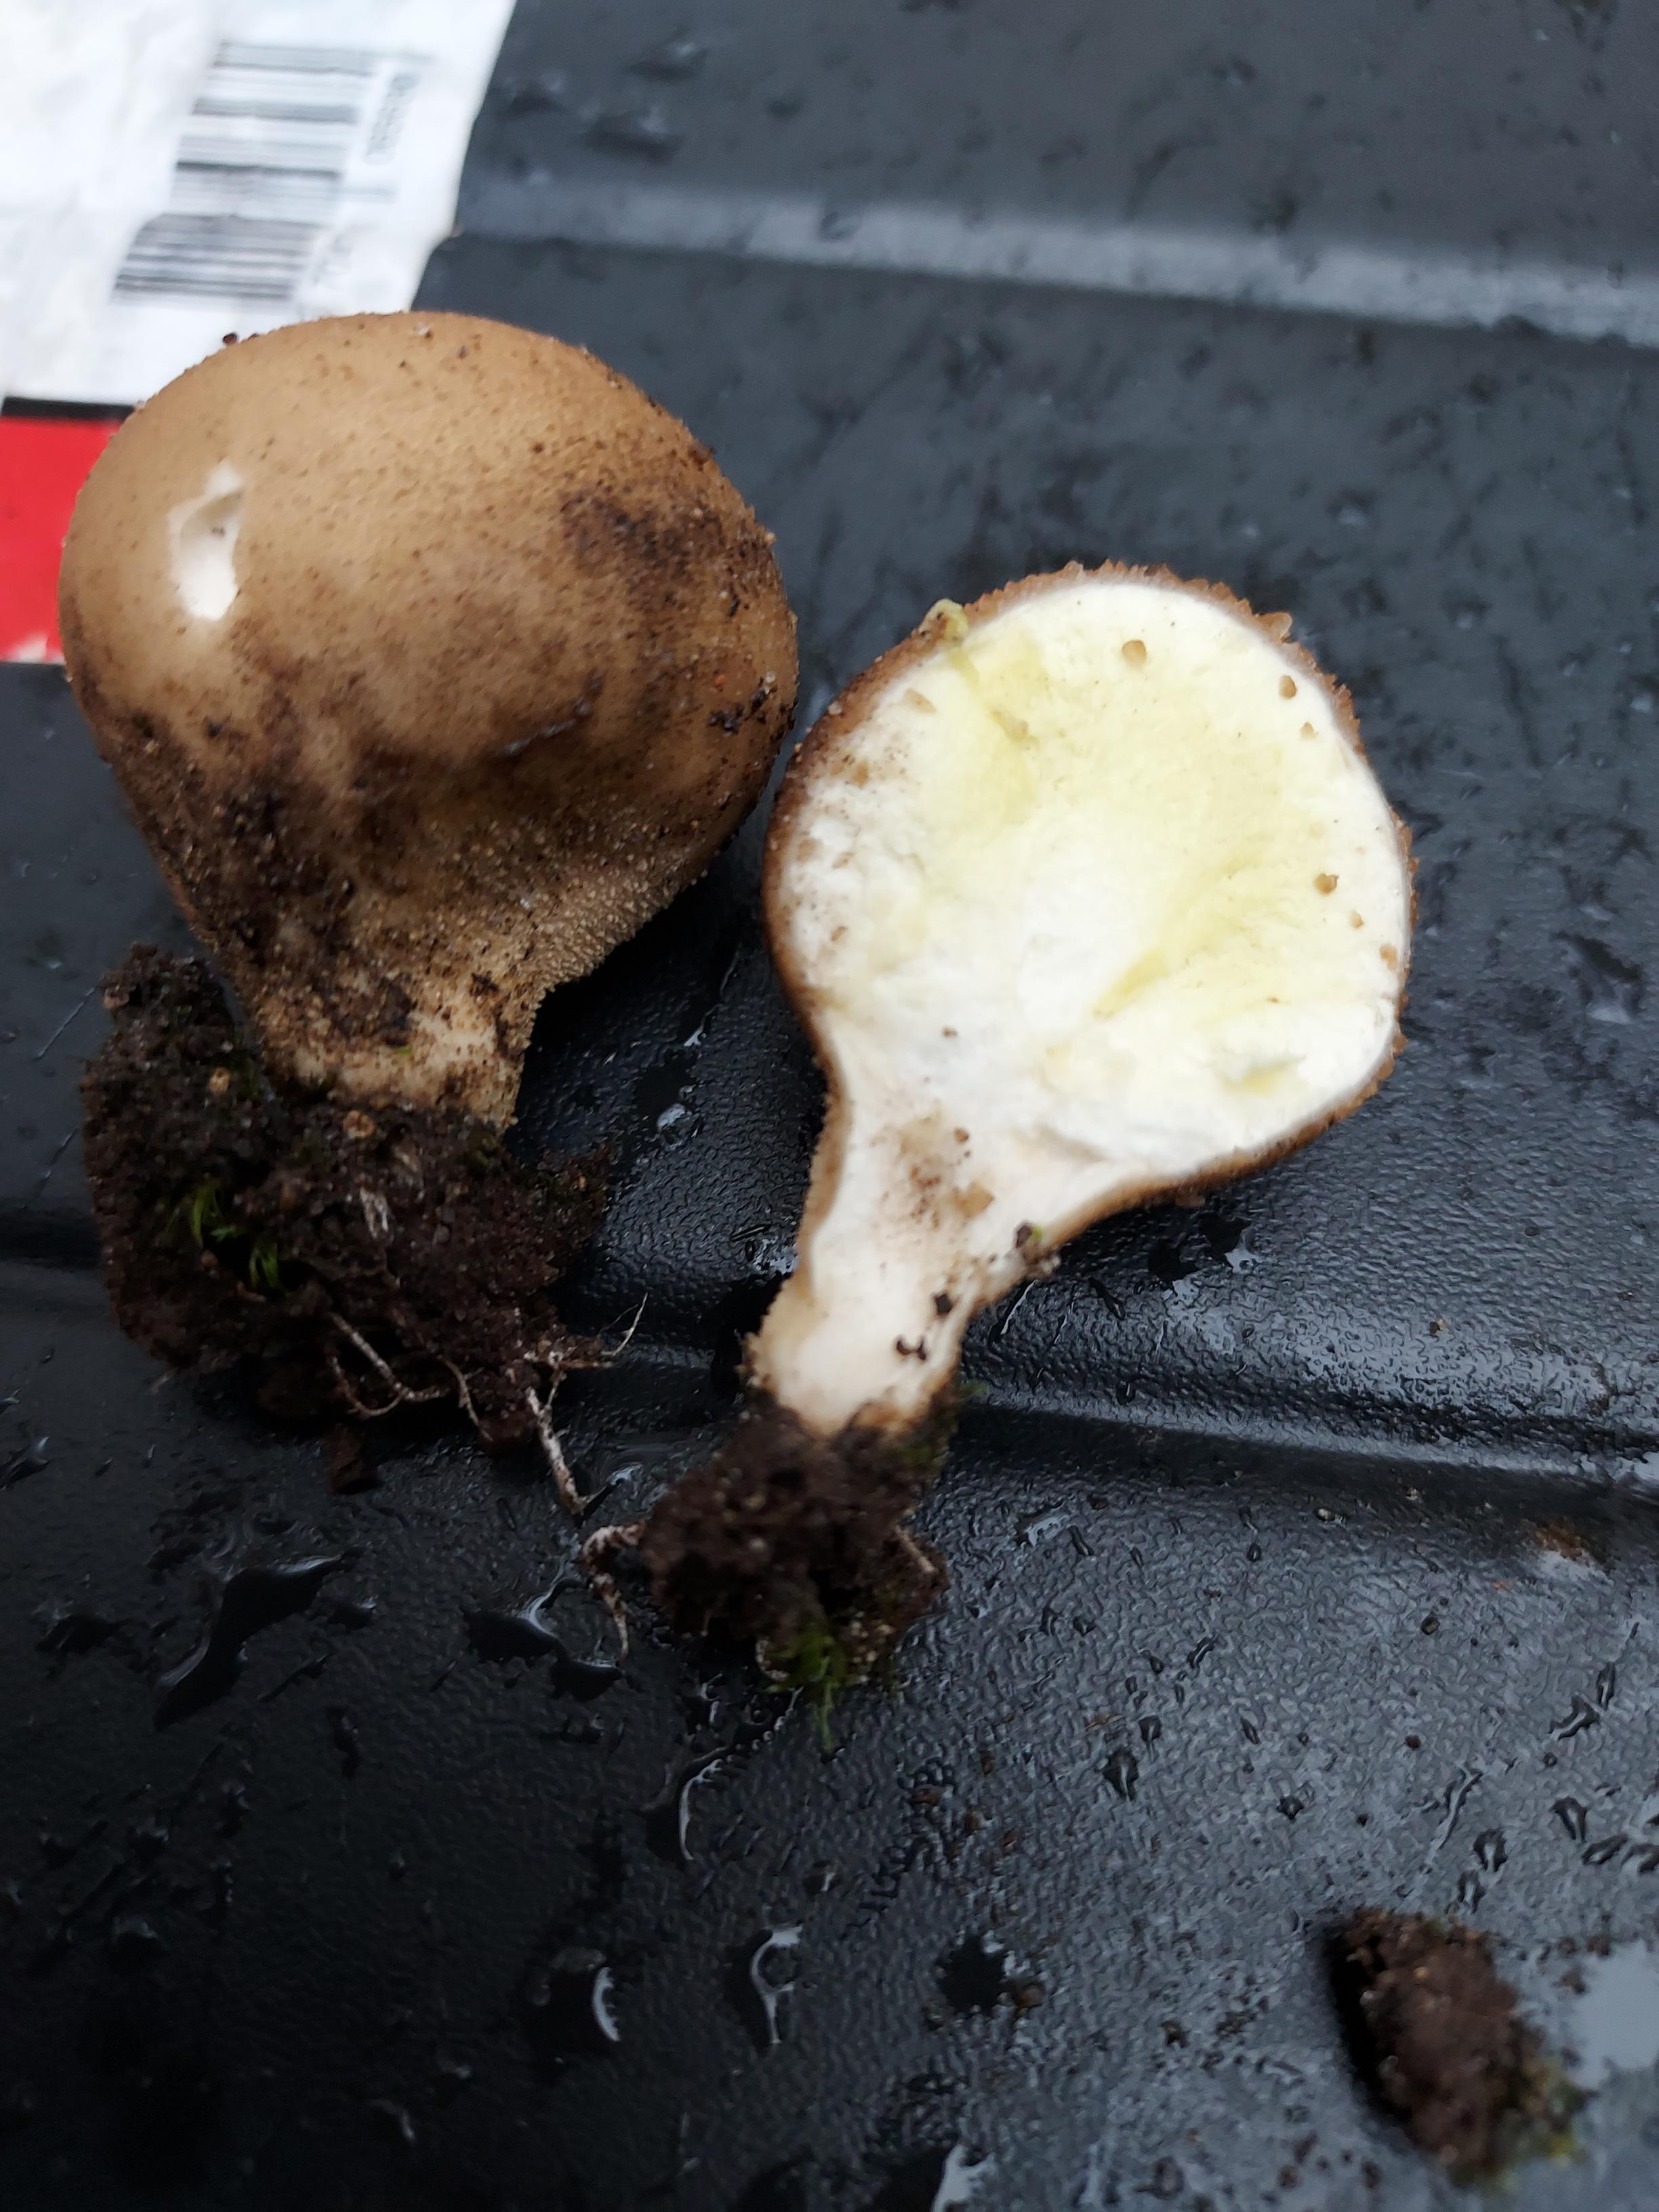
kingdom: Fungi
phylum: Basidiomycota
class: Agaricomycetes
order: Agaricales
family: Lycoperdaceae
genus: Apioperdon
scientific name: Apioperdon pyriforme
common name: pære-støvbold
